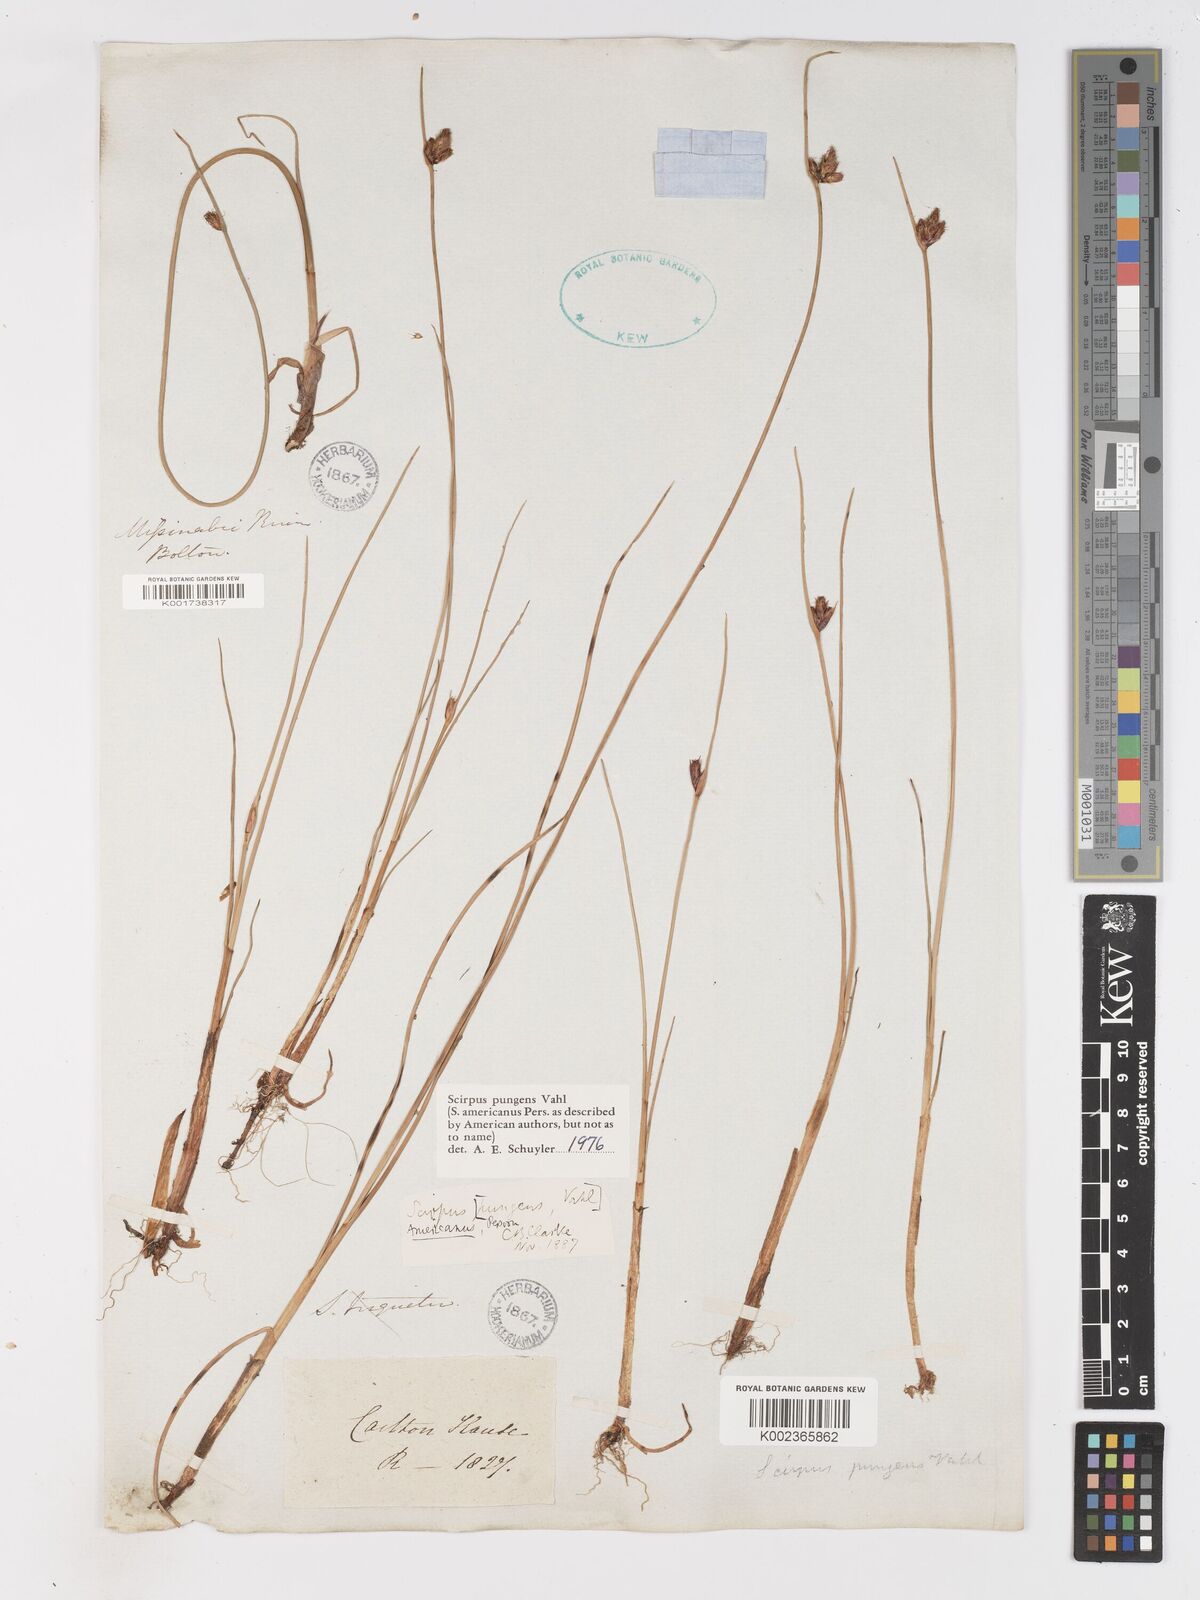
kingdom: Plantae
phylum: Tracheophyta
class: Liliopsida
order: Poales
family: Cyperaceae
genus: Schoenoplectus
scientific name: Schoenoplectus pungens
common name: Sharp club-rush
